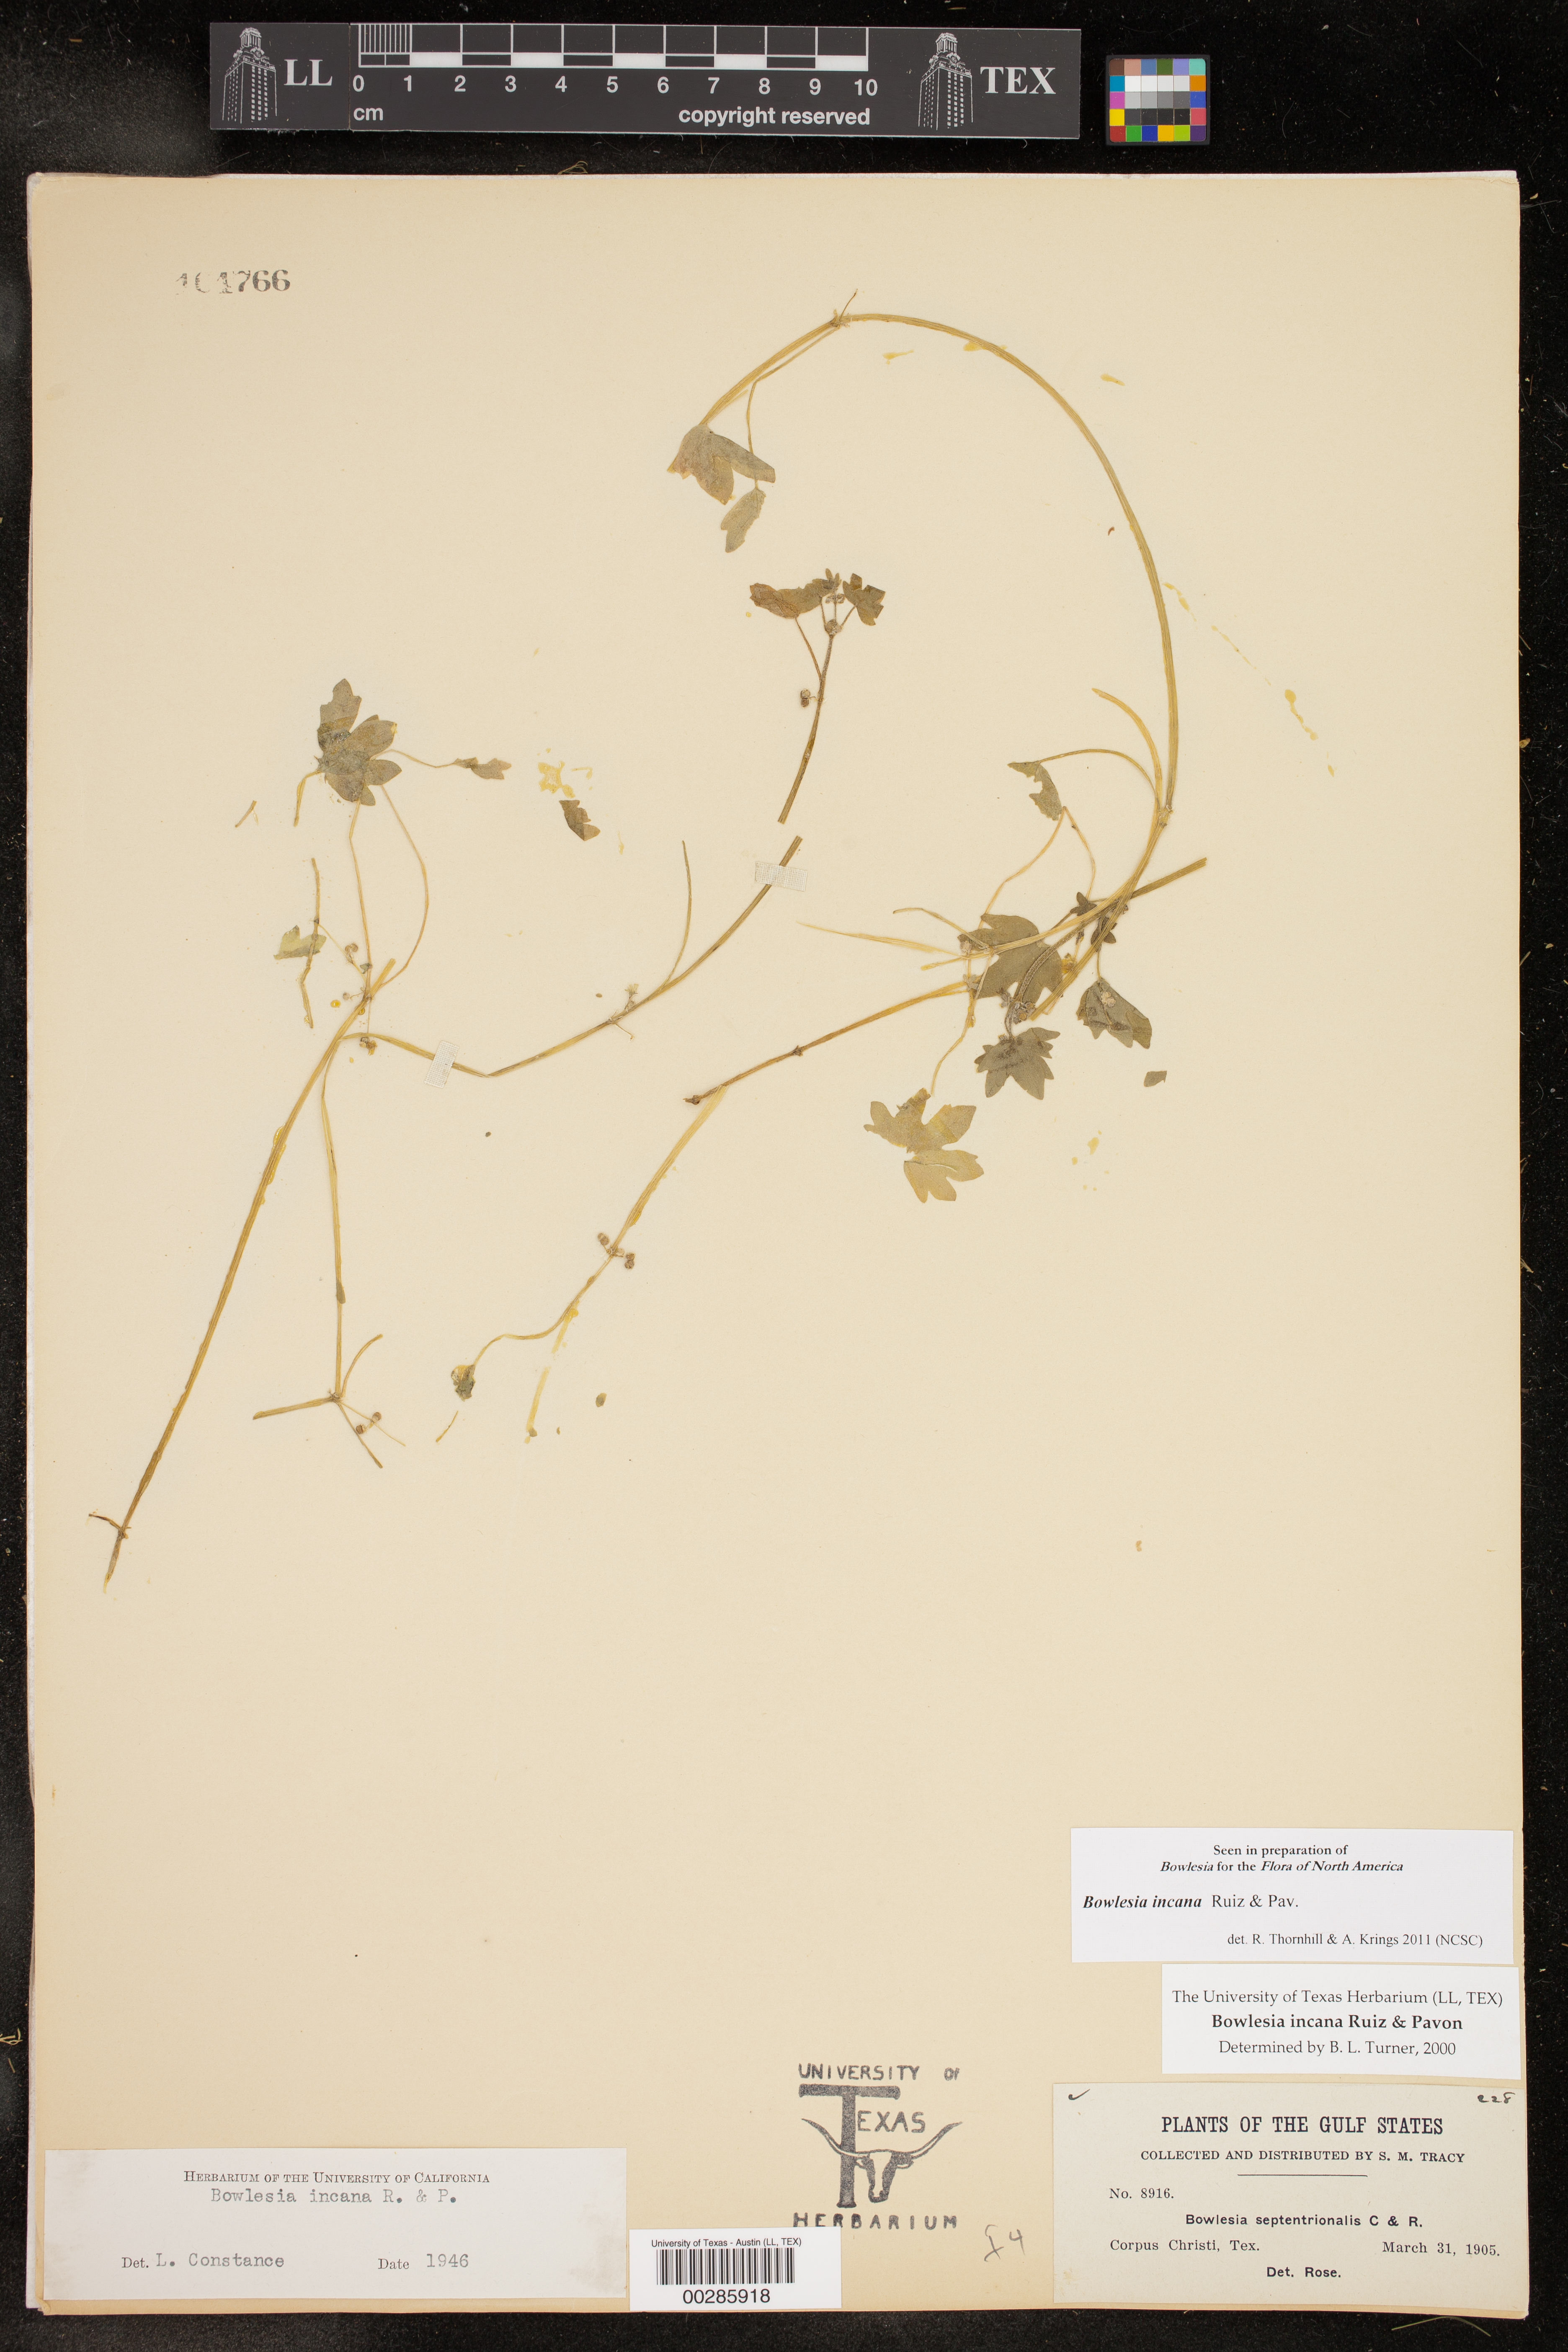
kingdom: Plantae
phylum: Tracheophyta
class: Magnoliopsida
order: Apiales
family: Apiaceae
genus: Bowlesia
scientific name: Bowlesia incana
